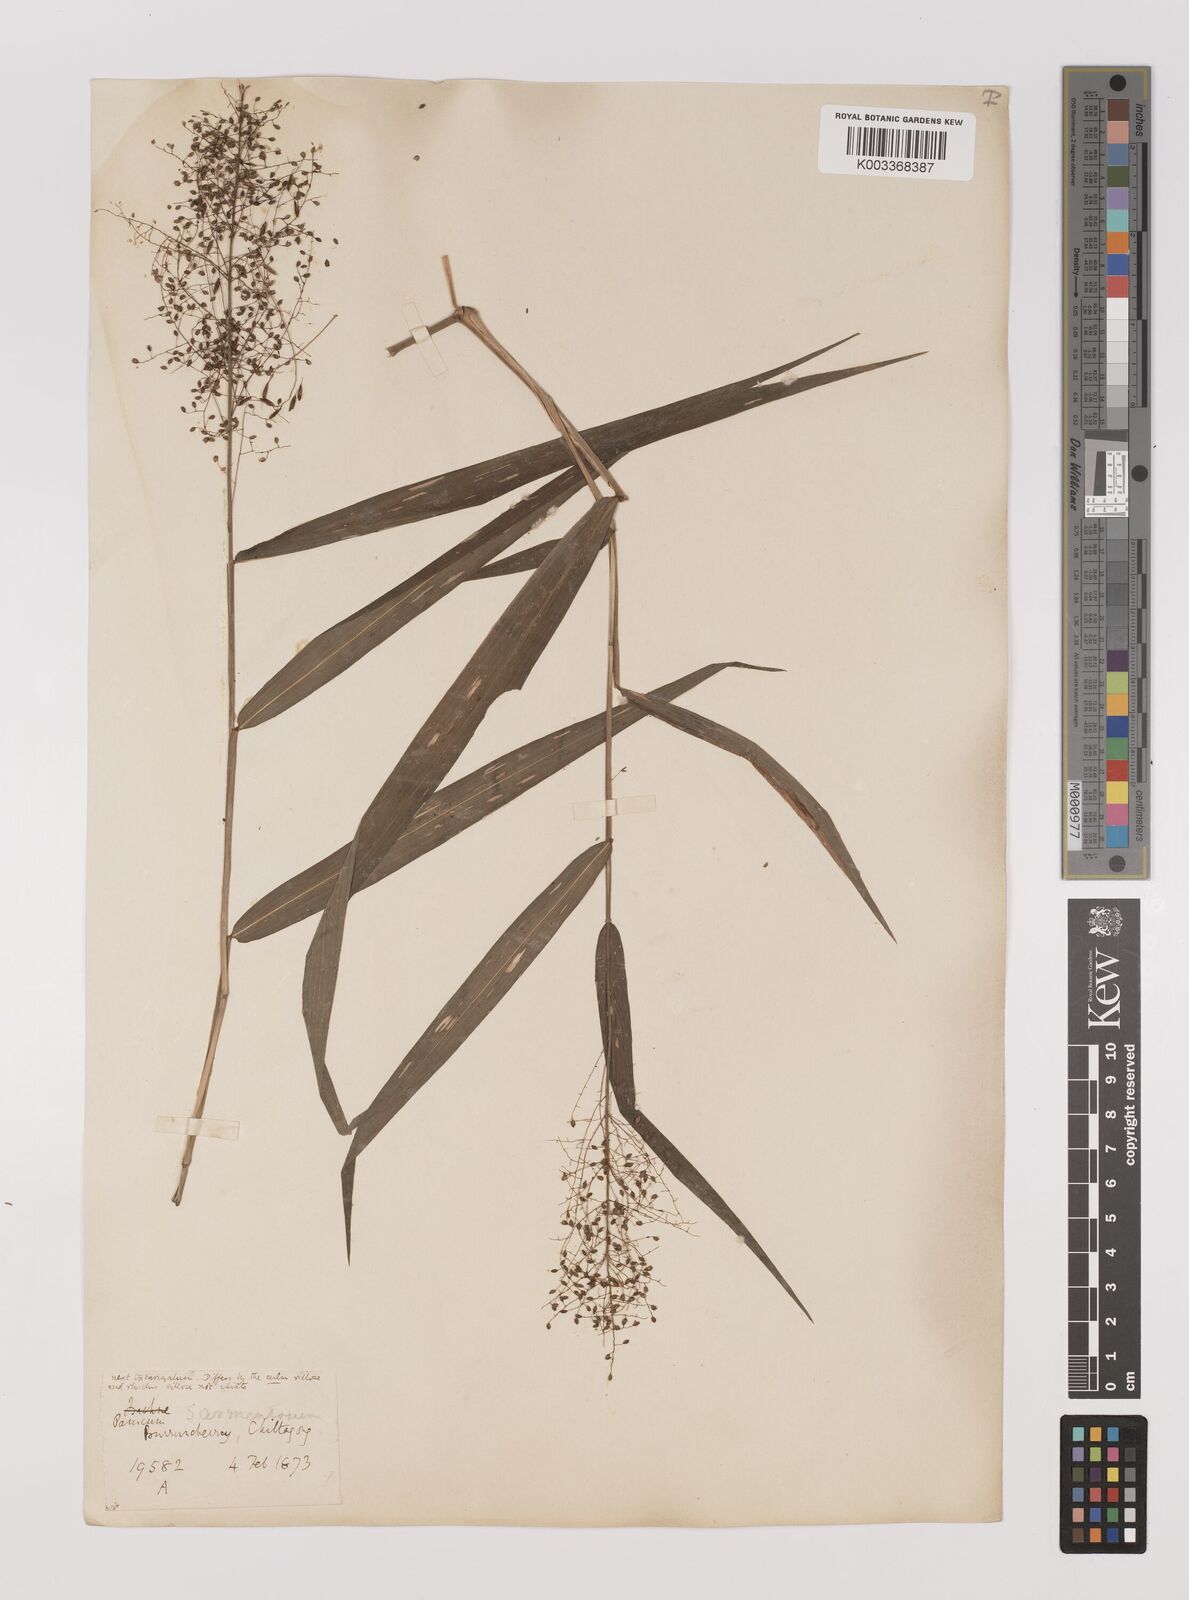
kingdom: Plantae
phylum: Tracheophyta
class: Liliopsida
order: Poales
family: Poaceae
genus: Panicum
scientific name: Panicum incomtum
